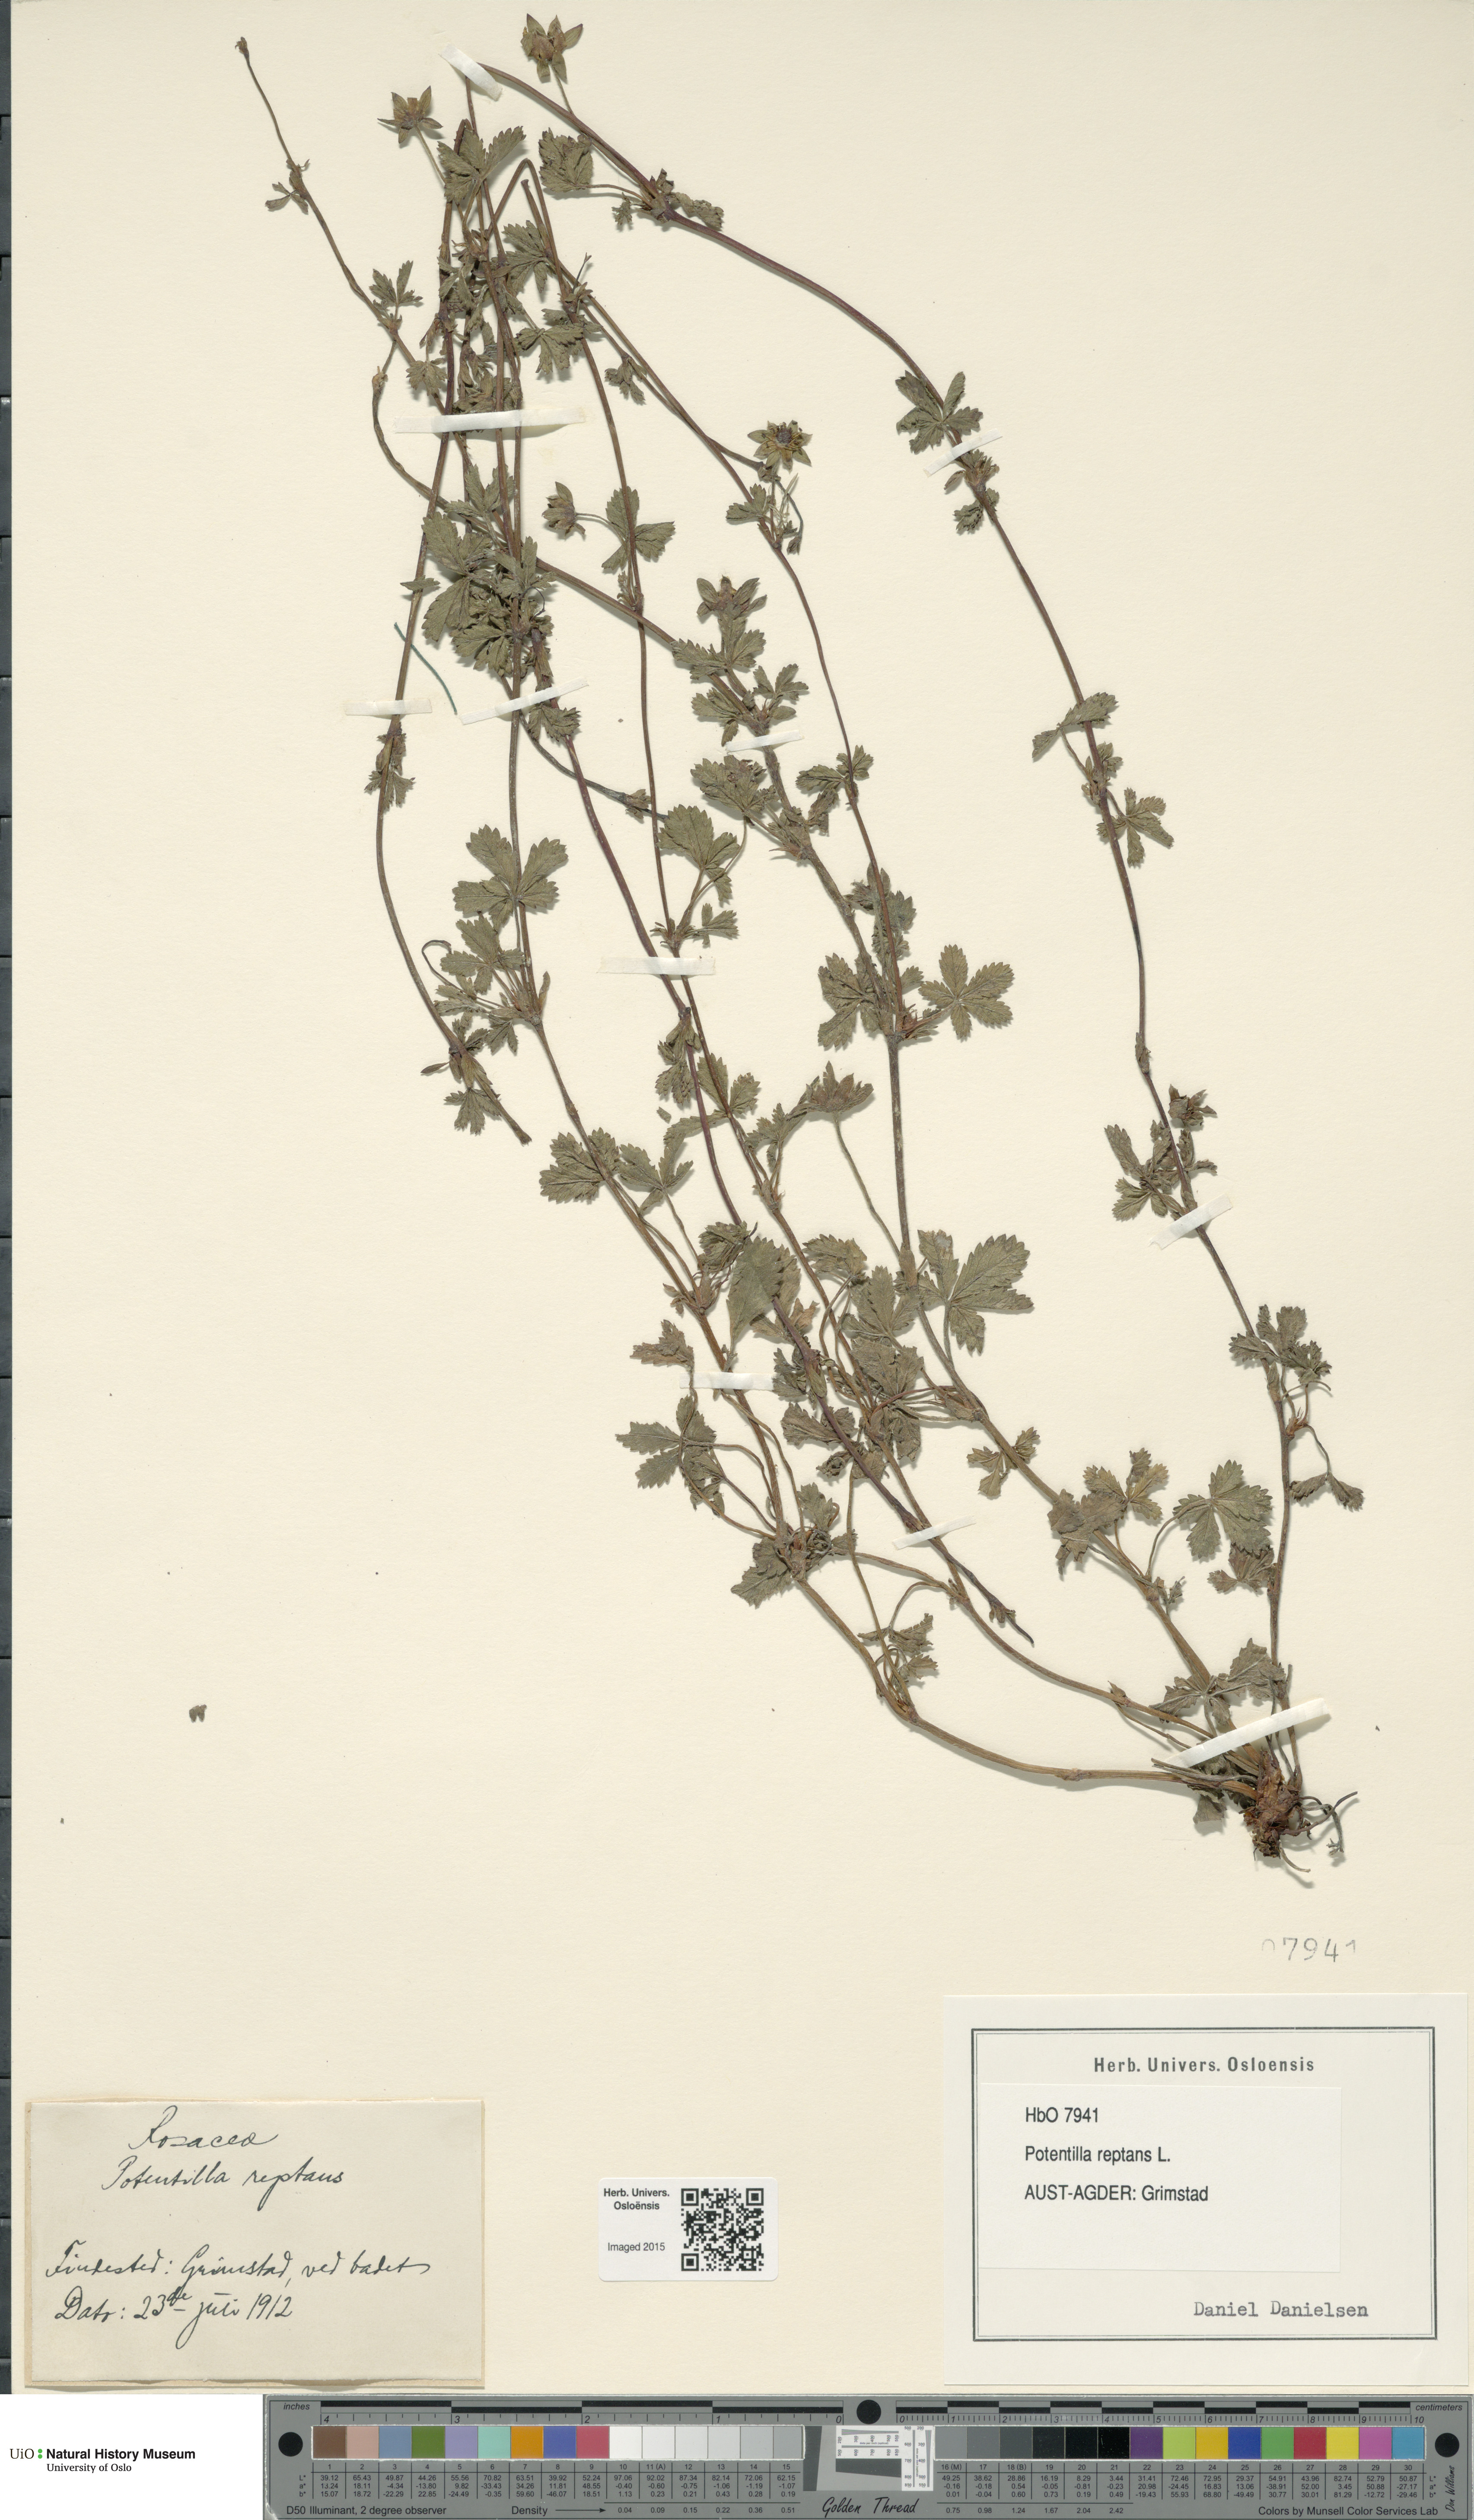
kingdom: Plantae
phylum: Tracheophyta
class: Magnoliopsida
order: Rosales
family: Rosaceae
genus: Potentilla
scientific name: Potentilla reptans
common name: Creeping cinquefoil
